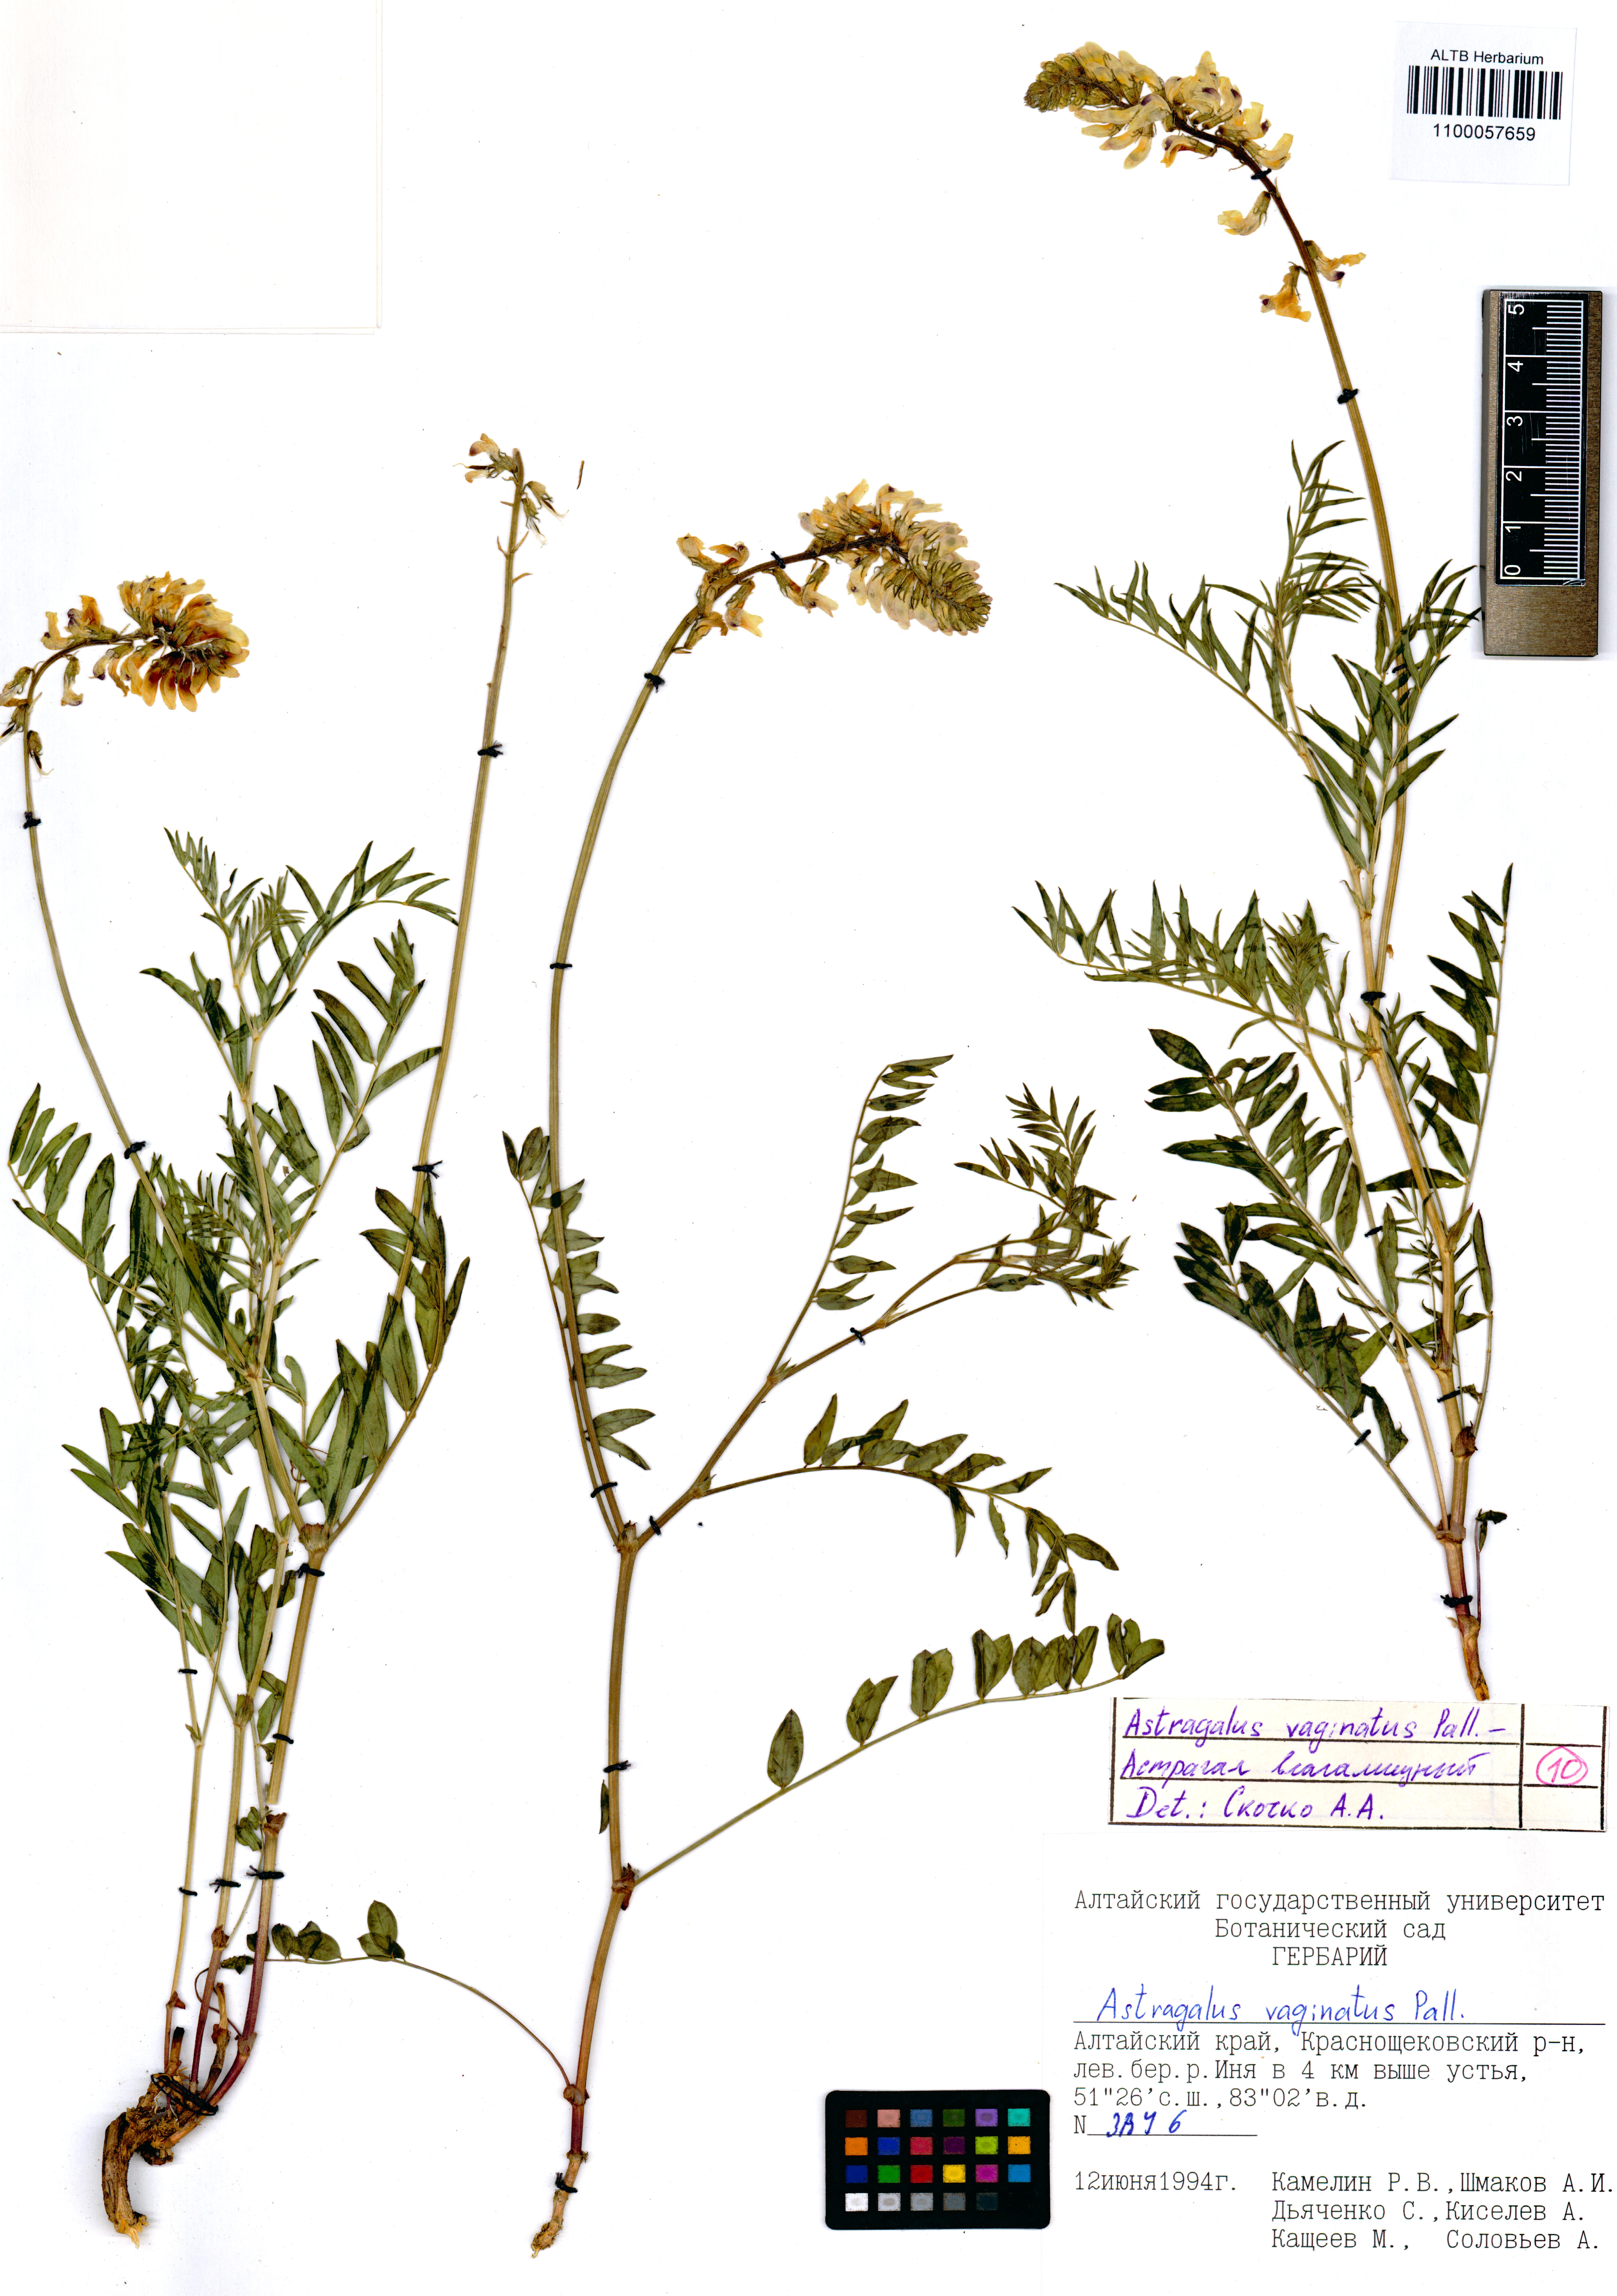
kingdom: Plantae
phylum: Tracheophyta
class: Magnoliopsida
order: Fabales
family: Fabaceae
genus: Astragalus
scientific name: Astragalus vaginatus
